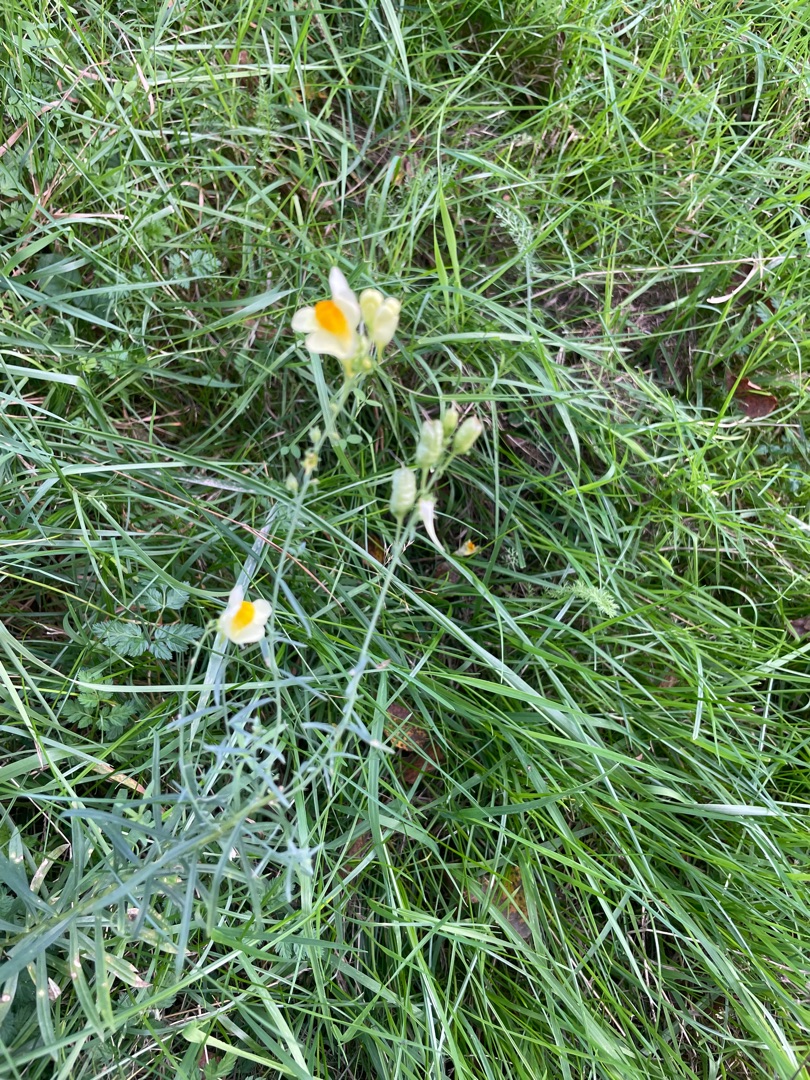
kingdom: Plantae
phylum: Tracheophyta
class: Magnoliopsida
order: Lamiales
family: Plantaginaceae
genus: Linaria
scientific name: Linaria vulgaris
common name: Almindelig torskemund
